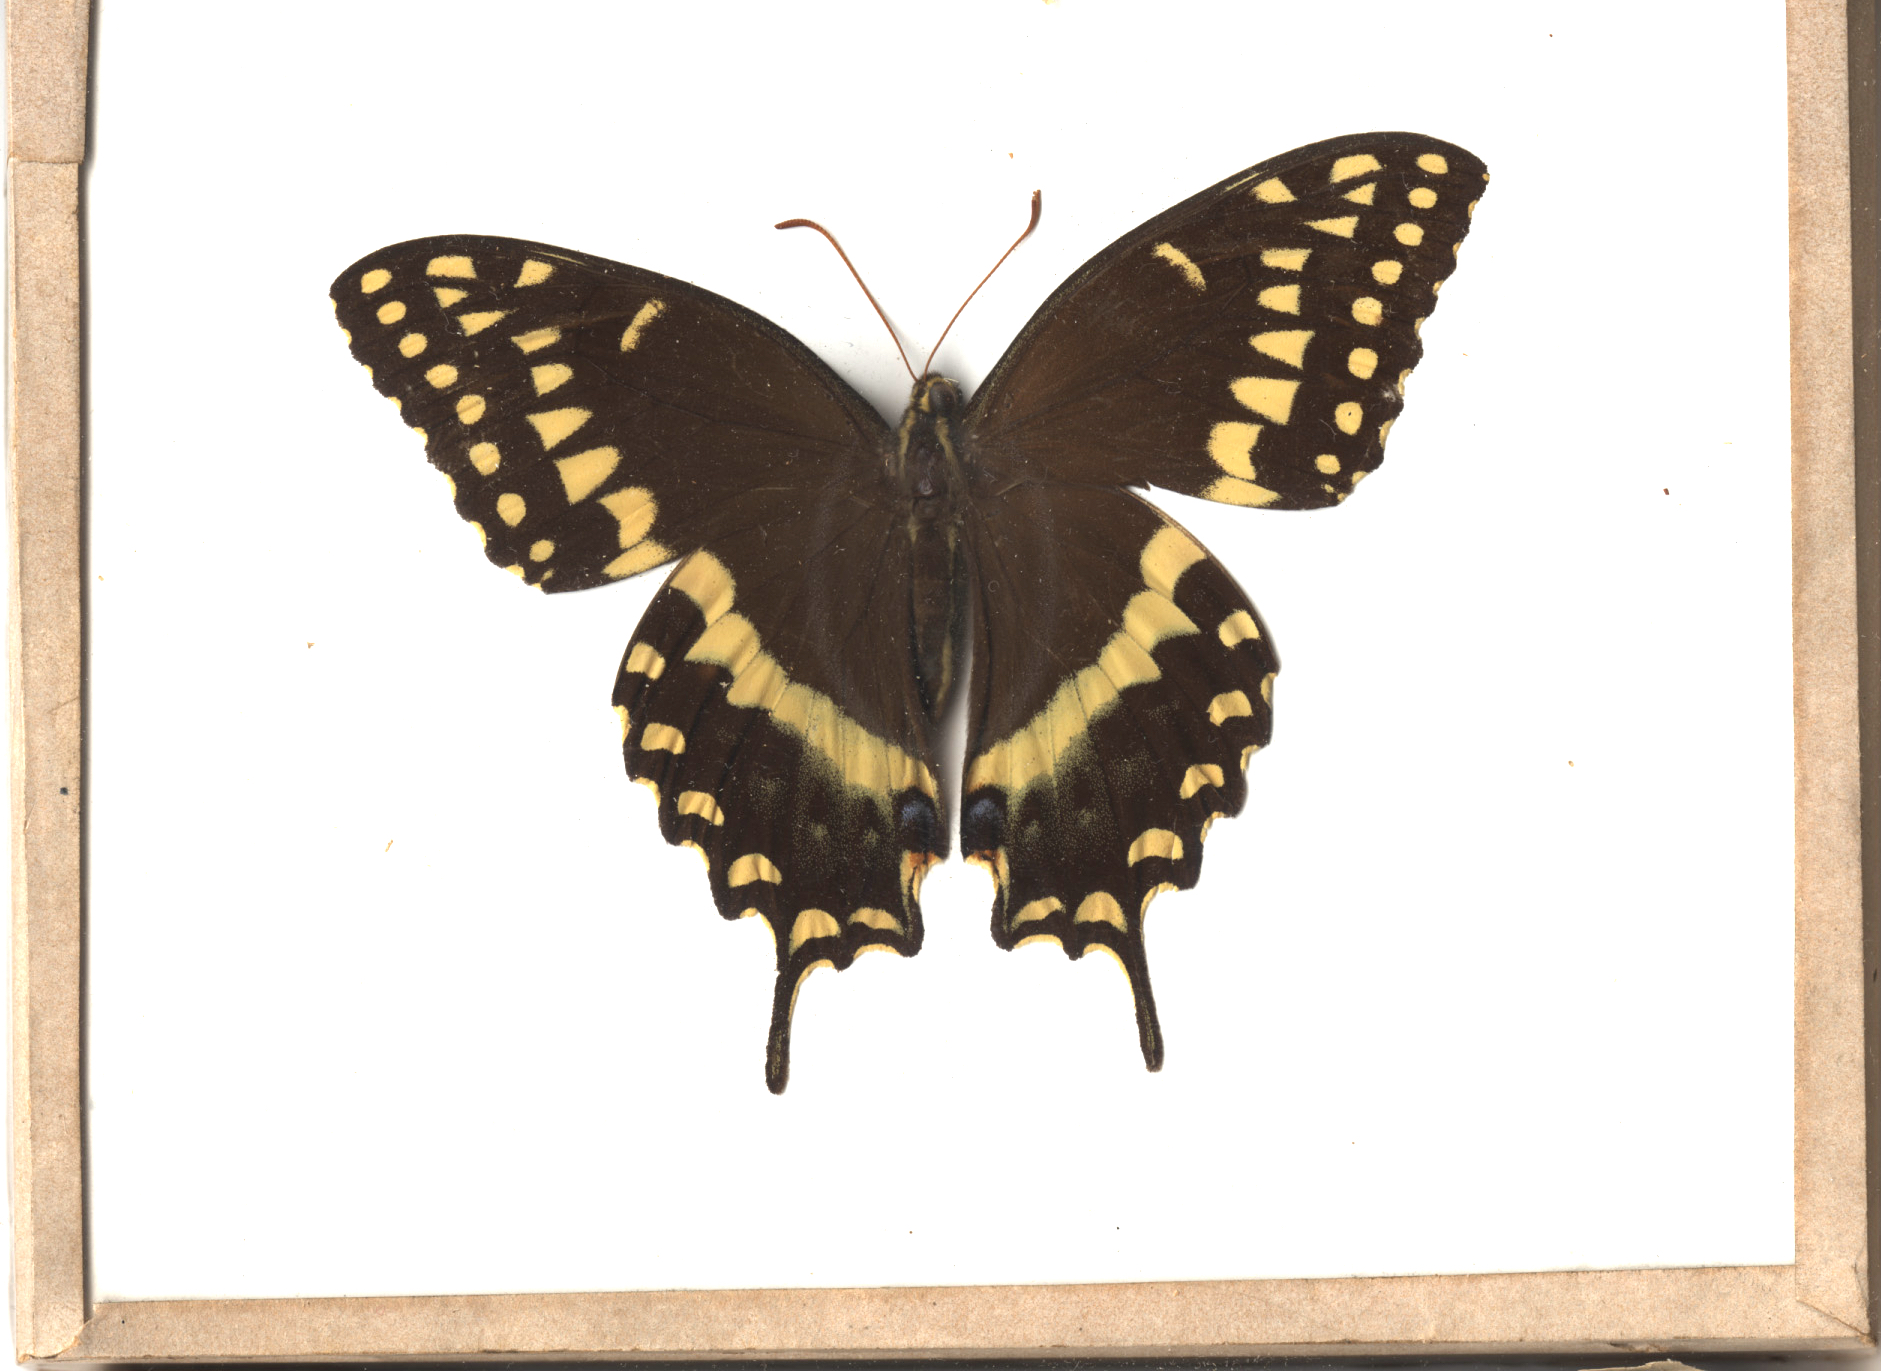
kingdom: Animalia
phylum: Arthropoda
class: Insecta
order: Lepidoptera
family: Papilionidae
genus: Papilio
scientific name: Papilio palamedes
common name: Palamedes Swallowtail
